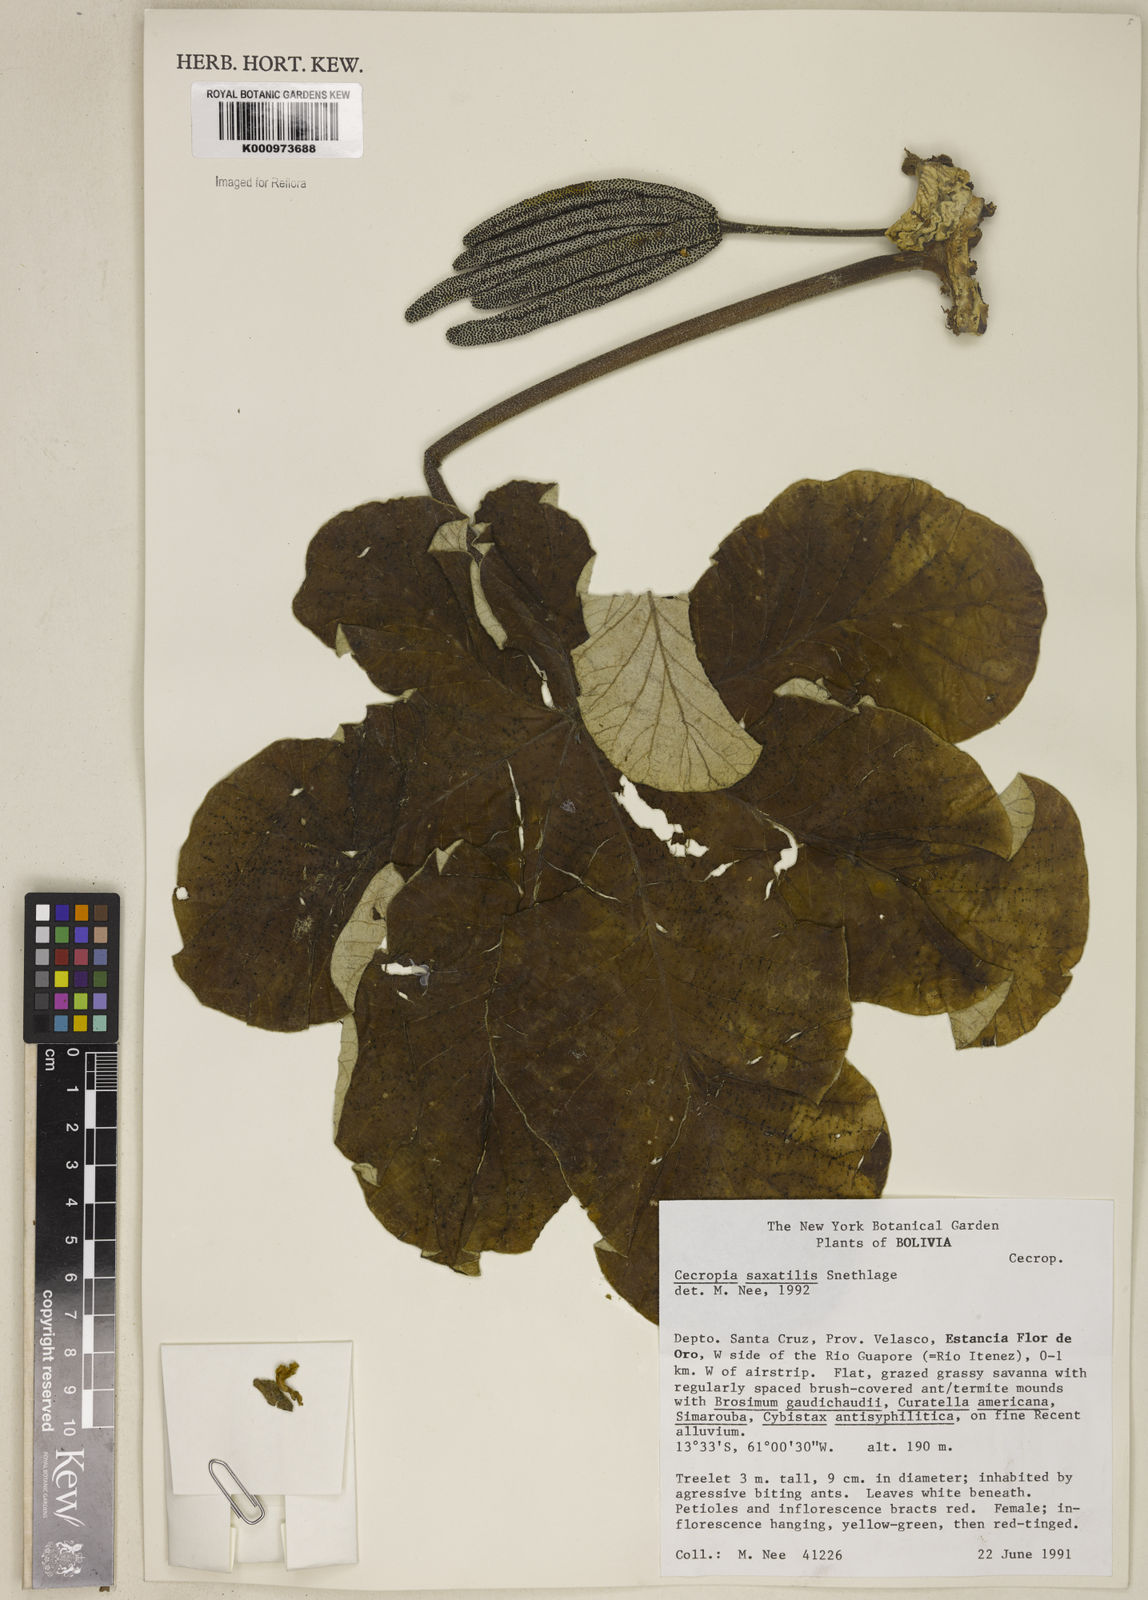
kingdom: Plantae
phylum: Tracheophyta
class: Magnoliopsida
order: Rosales
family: Urticaceae
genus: Cecropia
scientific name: Cecropia saxatilis
